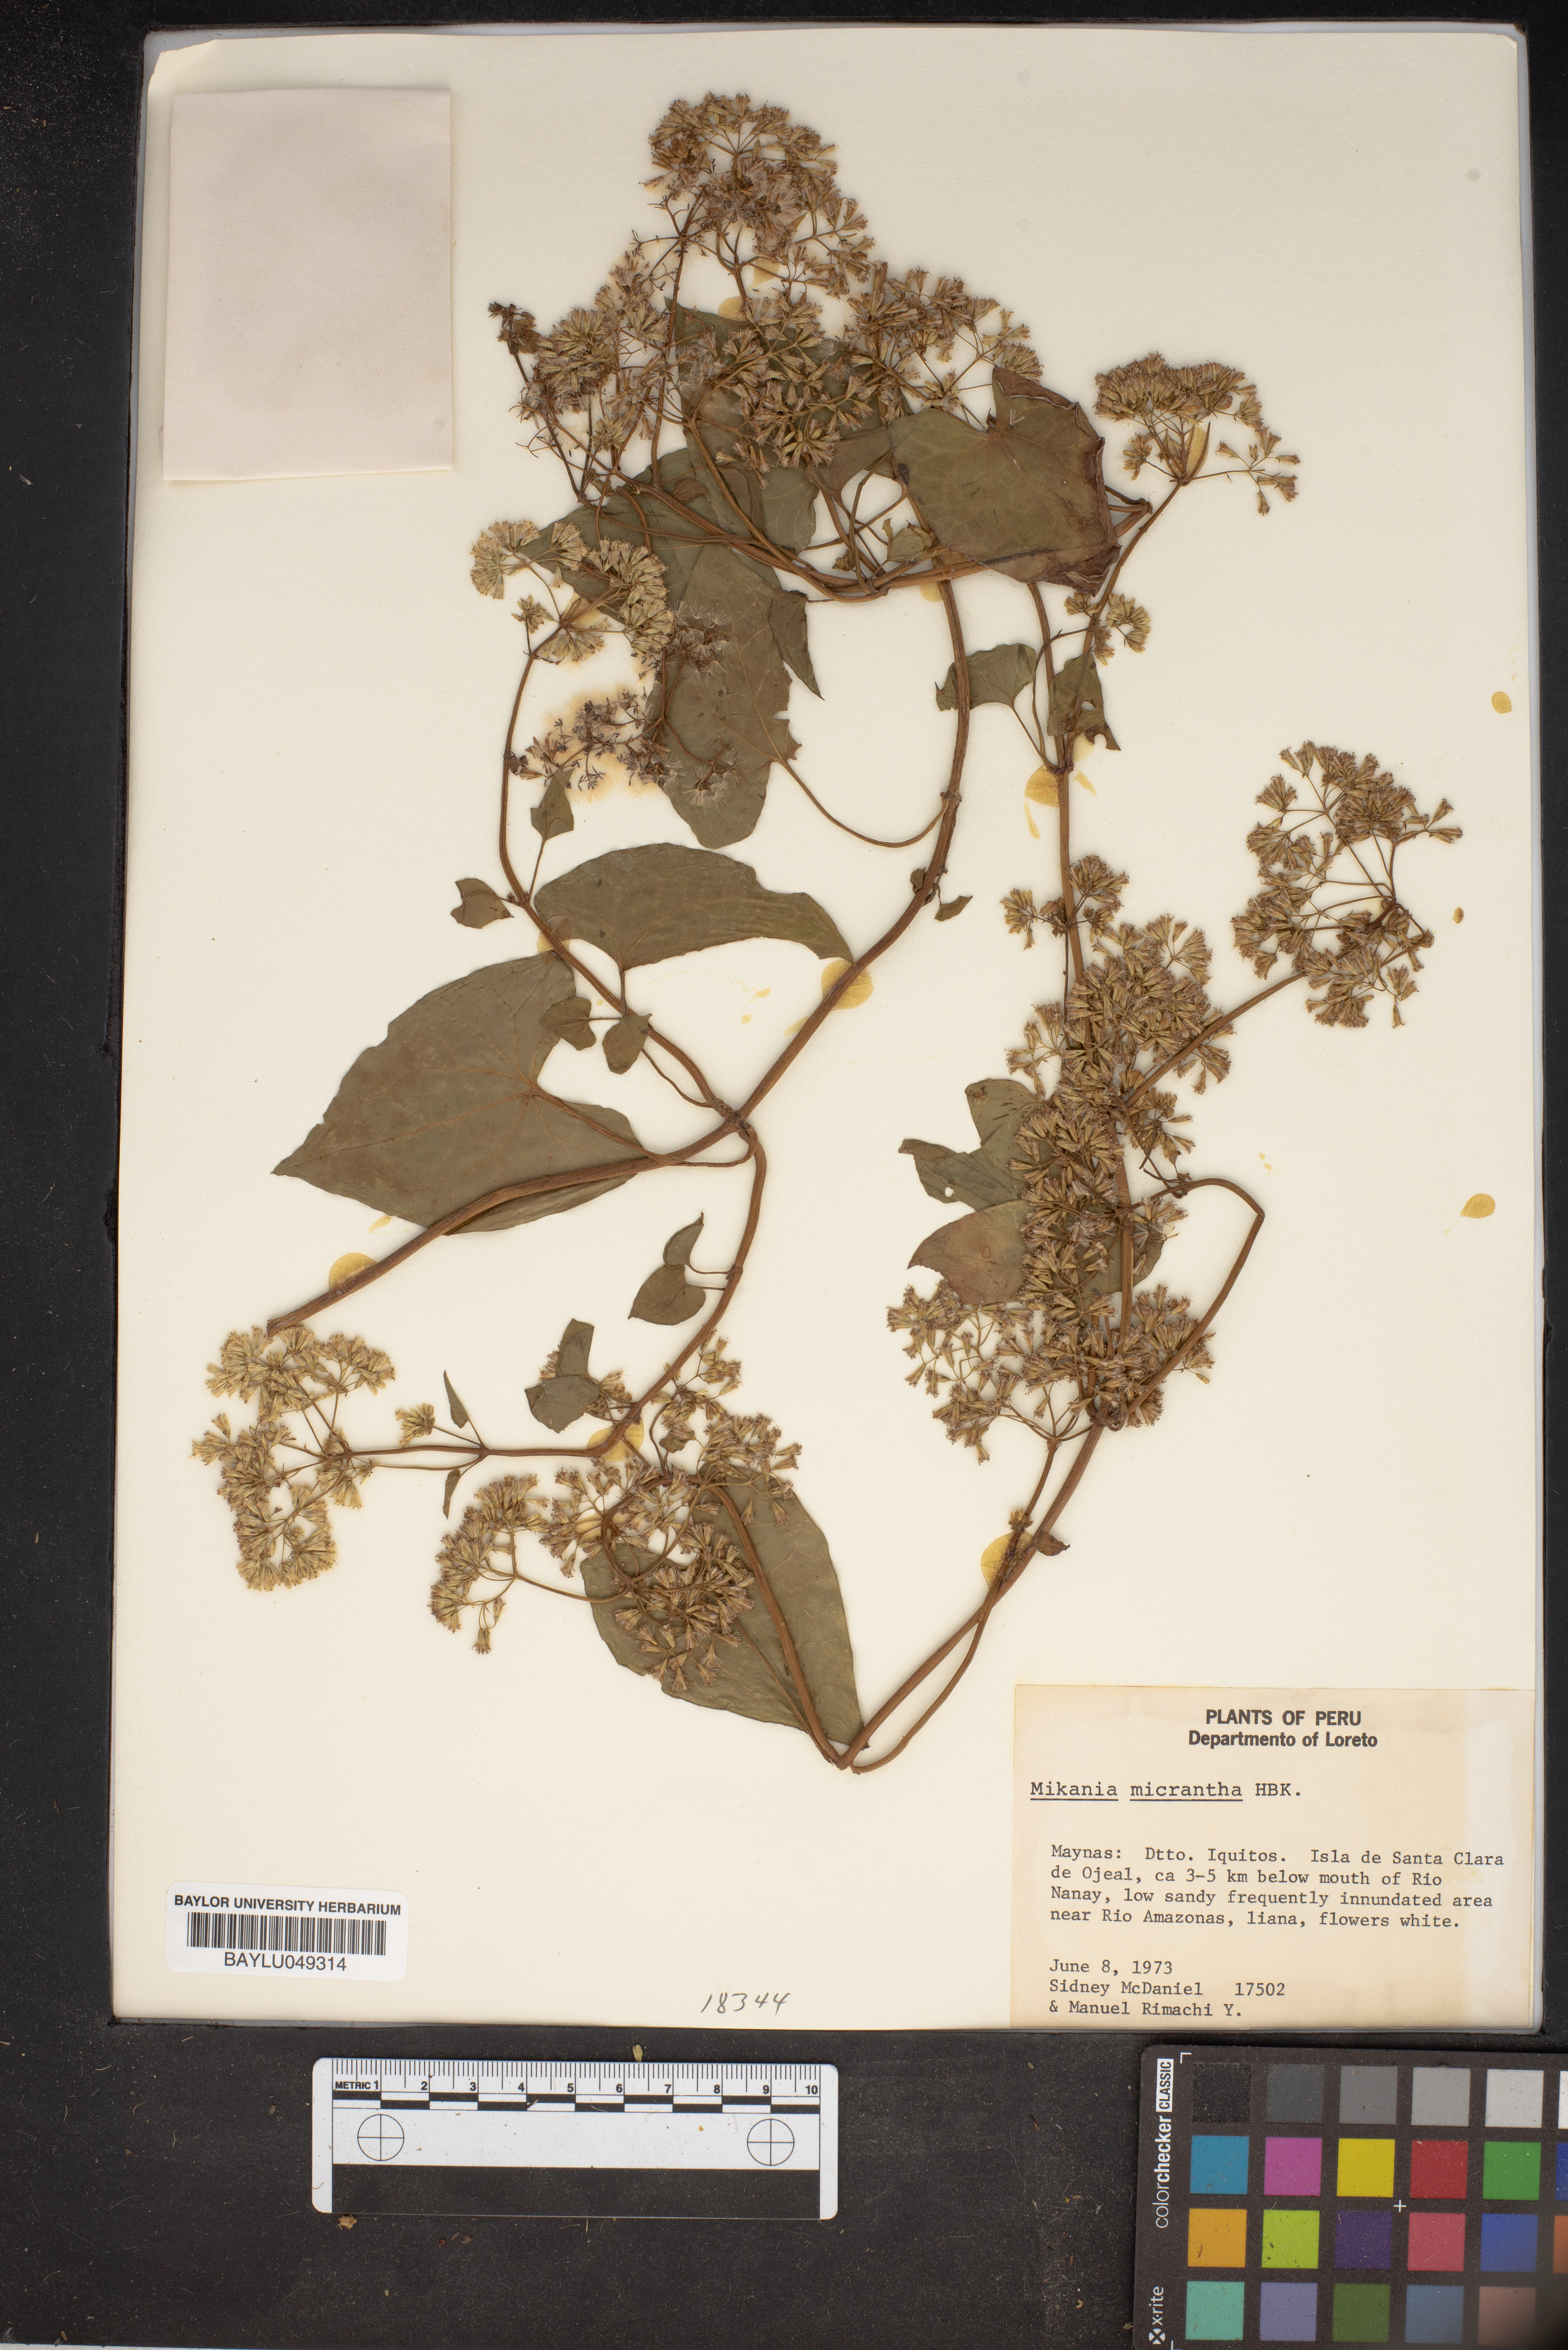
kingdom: Plantae
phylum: Tracheophyta
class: Magnoliopsida
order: Asterales
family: Asteraceae
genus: Mikania
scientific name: Mikania micrantha
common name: Mile-a-minute
